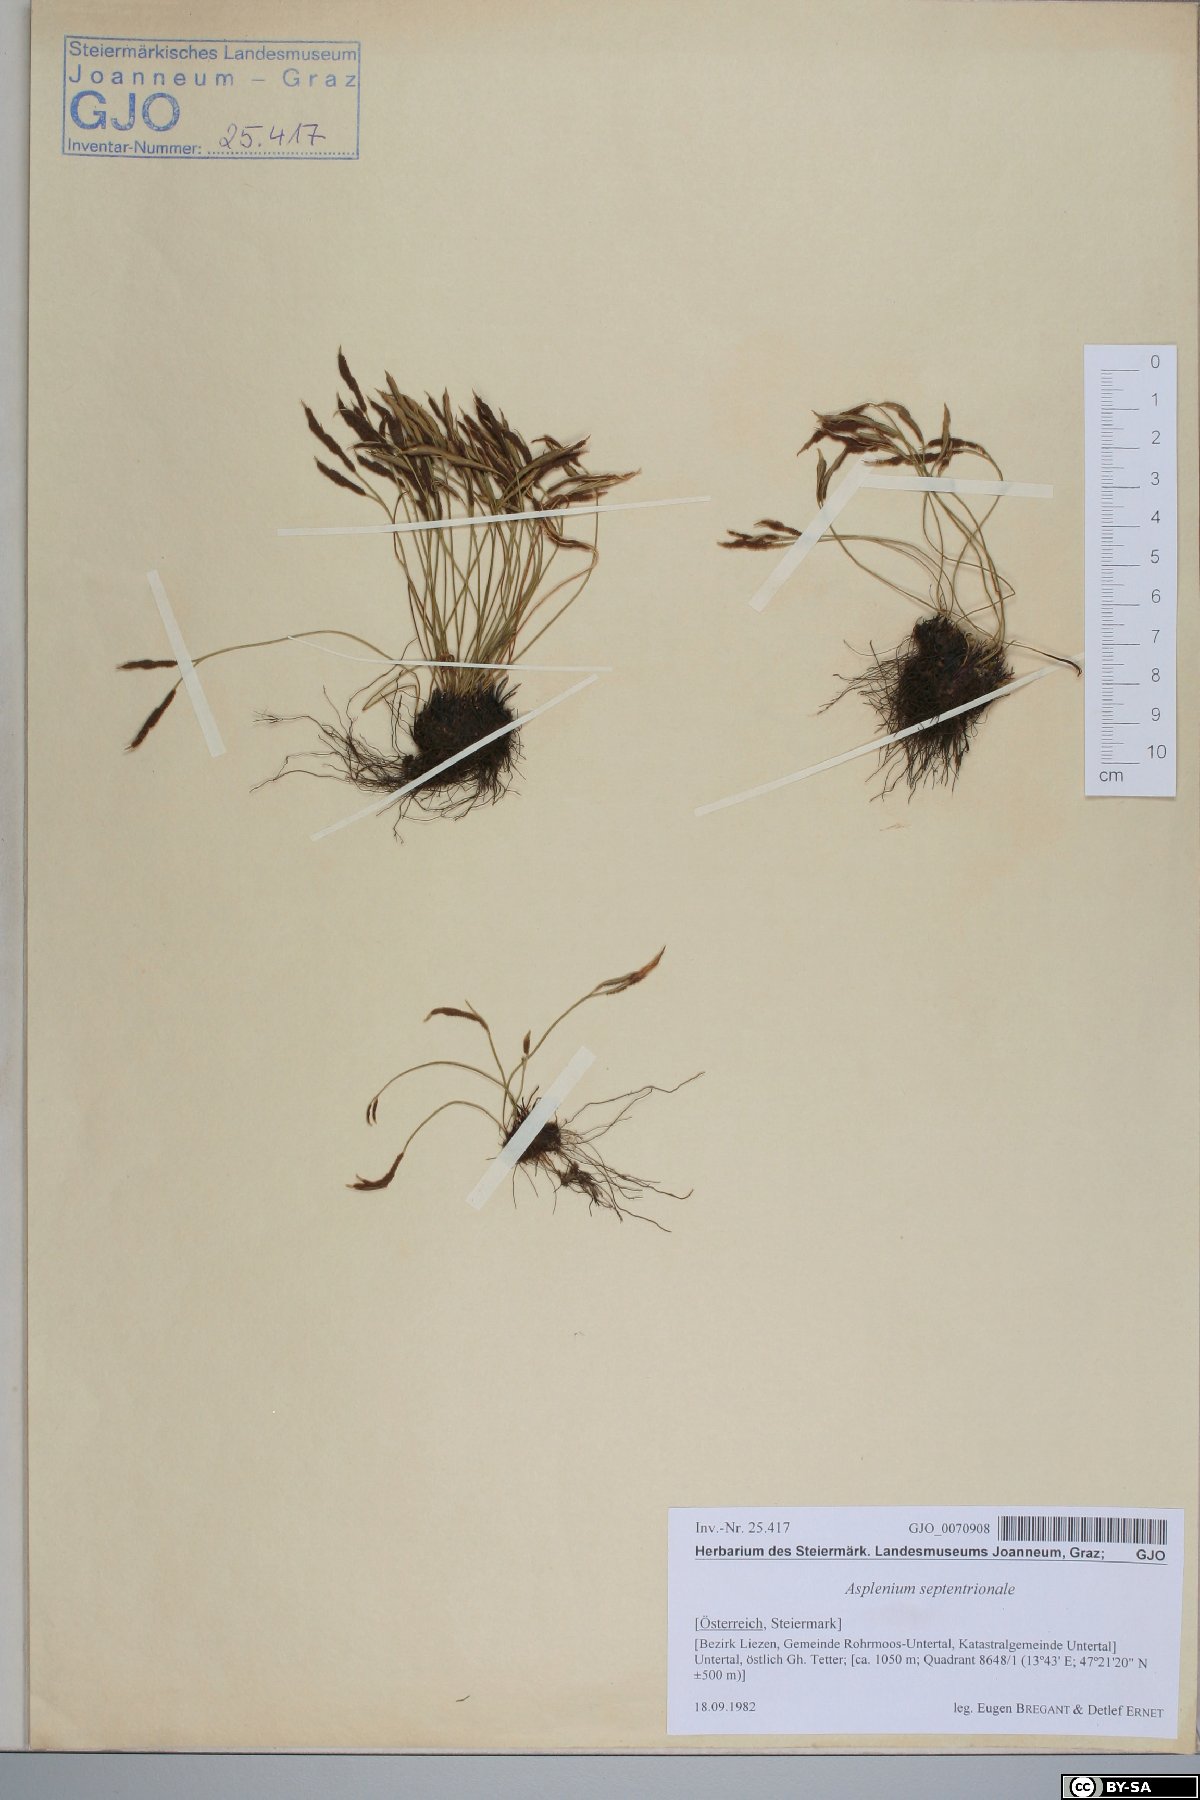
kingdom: Plantae
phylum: Tracheophyta
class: Polypodiopsida
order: Polypodiales
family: Aspleniaceae
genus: Asplenium
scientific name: Asplenium septentrionale
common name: Forked spleenwort
